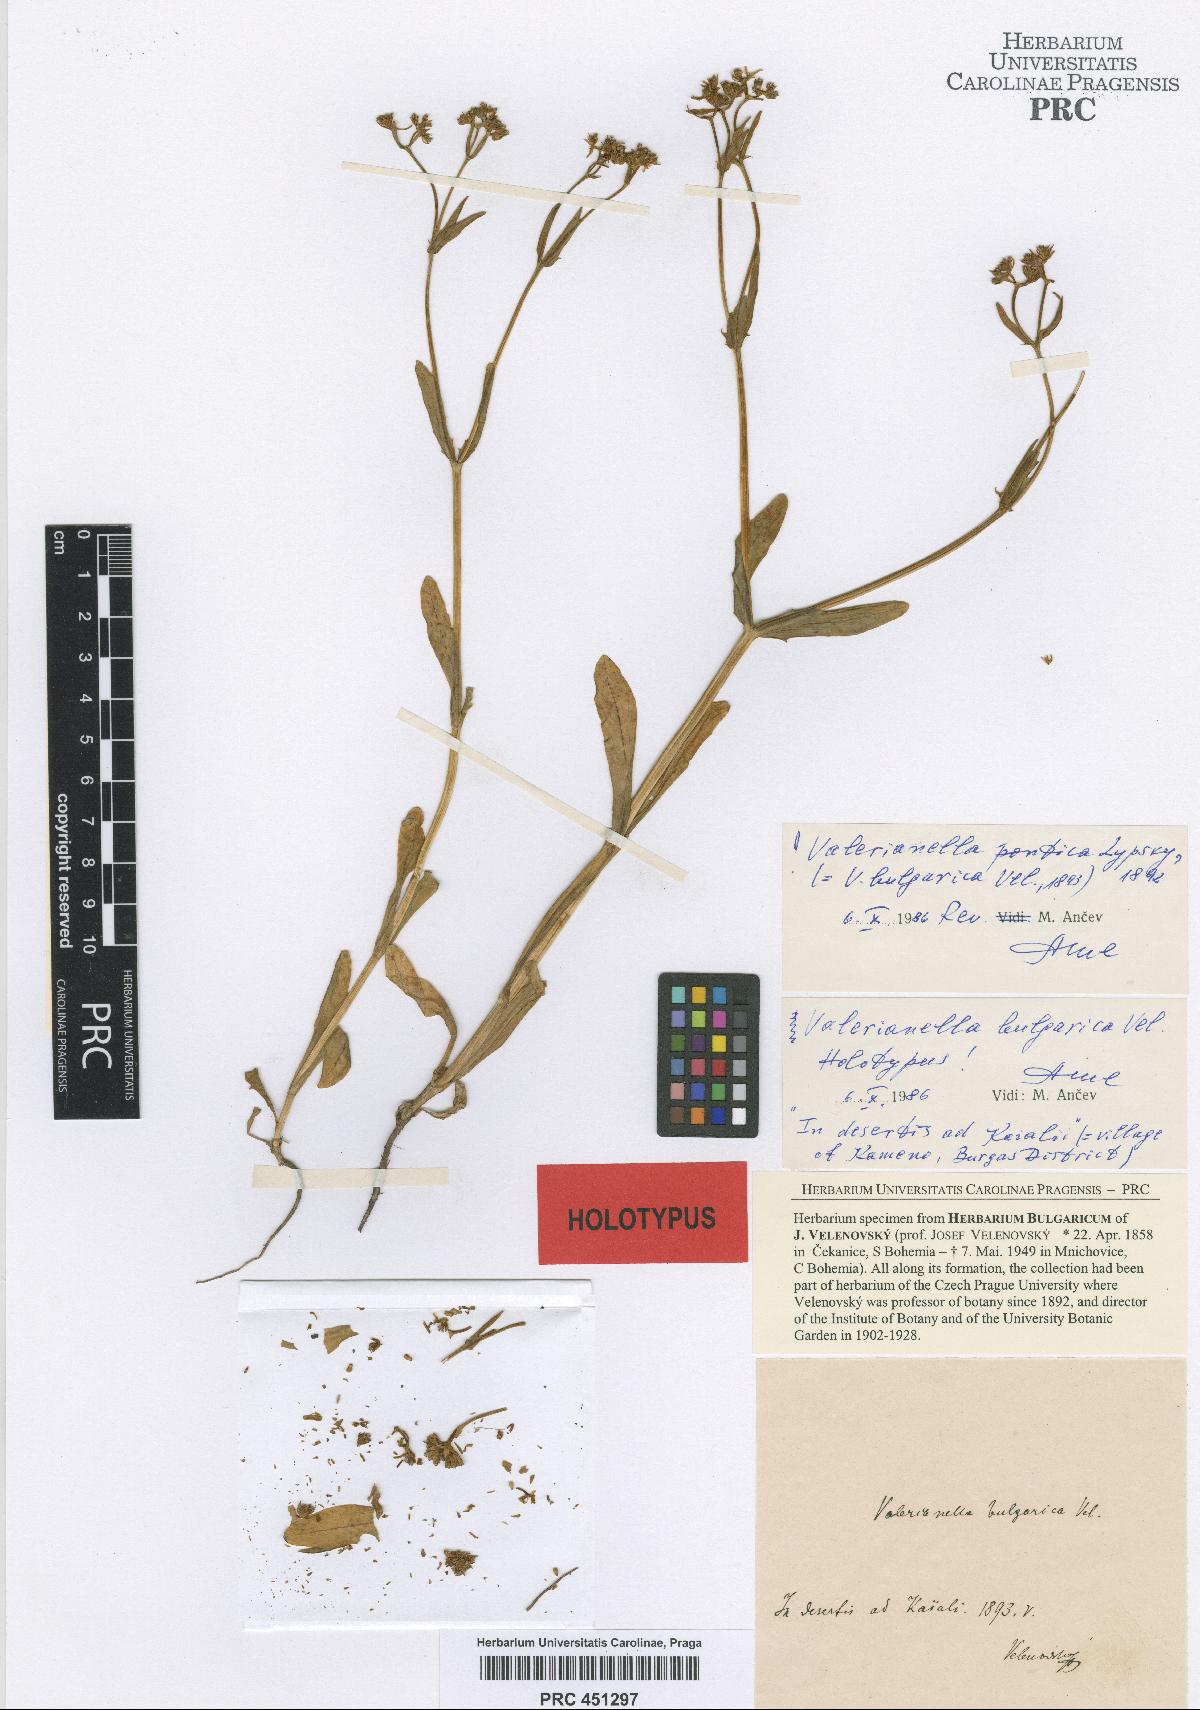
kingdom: Plantae
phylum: Tracheophyta
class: Magnoliopsida
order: Dipsacales
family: Caprifoliaceae
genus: Valerianella
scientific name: Valerianella pontica
